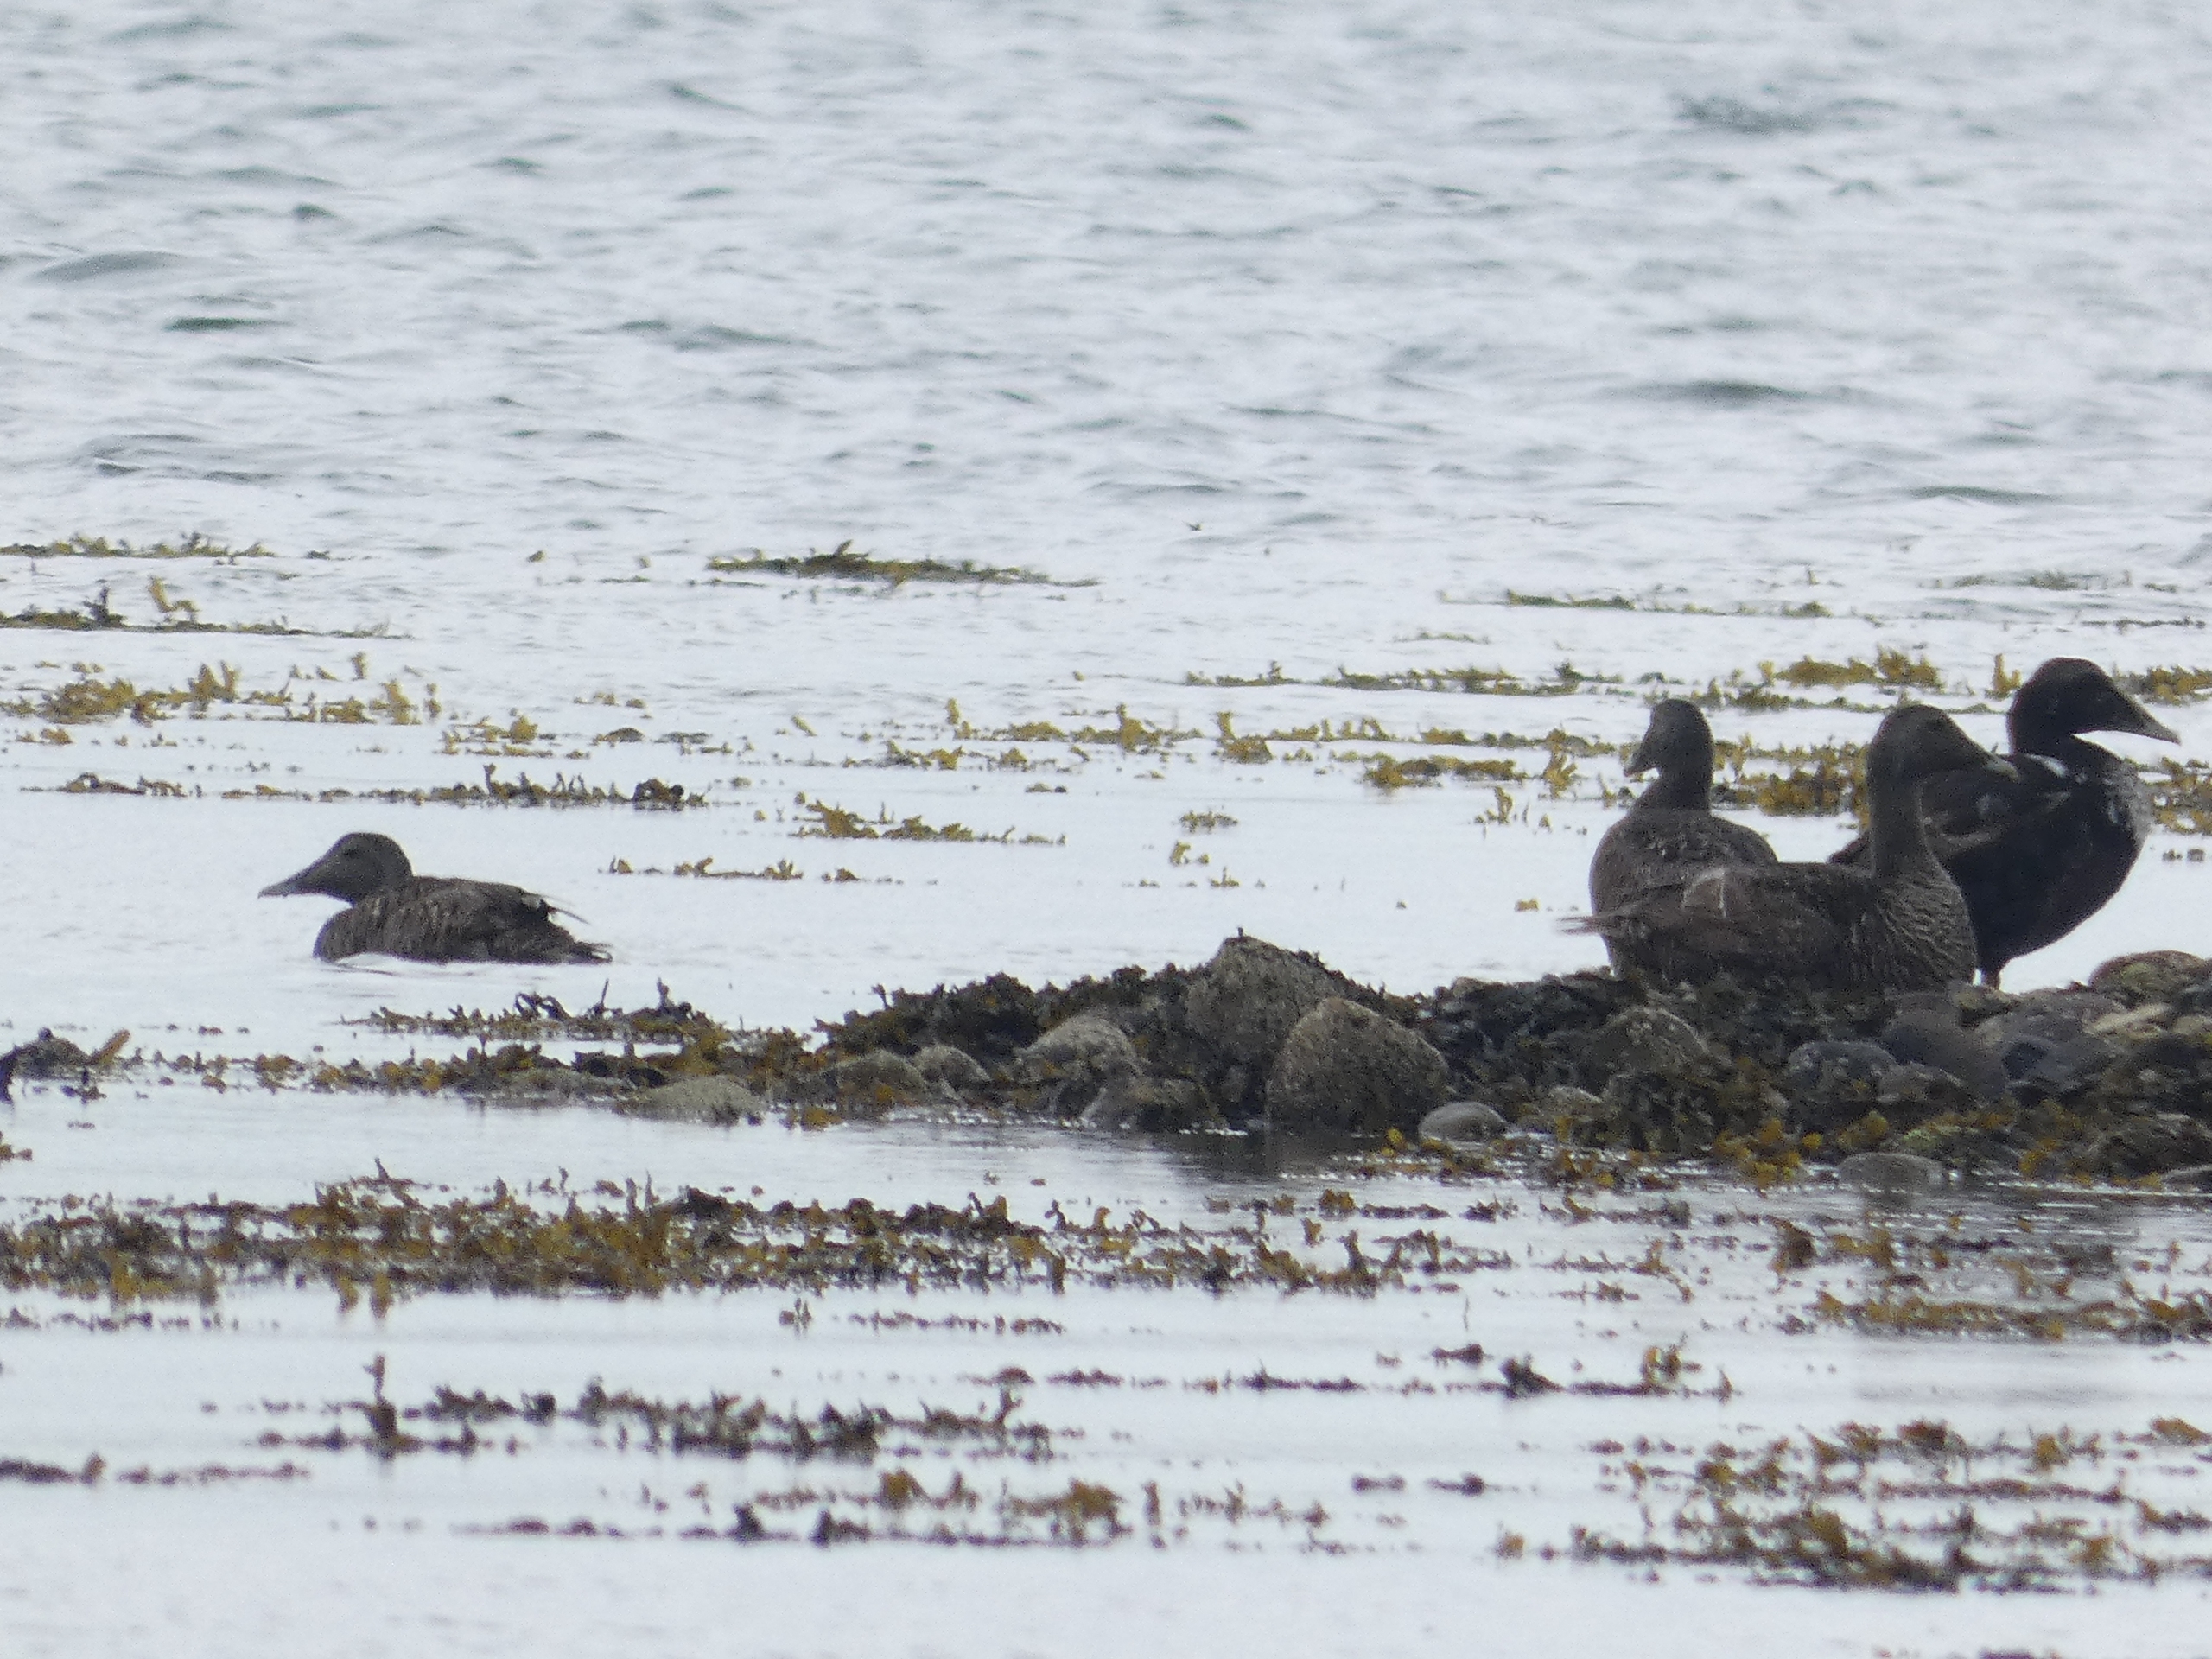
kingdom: Animalia
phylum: Chordata
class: Aves
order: Anseriformes
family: Anatidae
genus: Somateria
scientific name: Somateria mollissima
